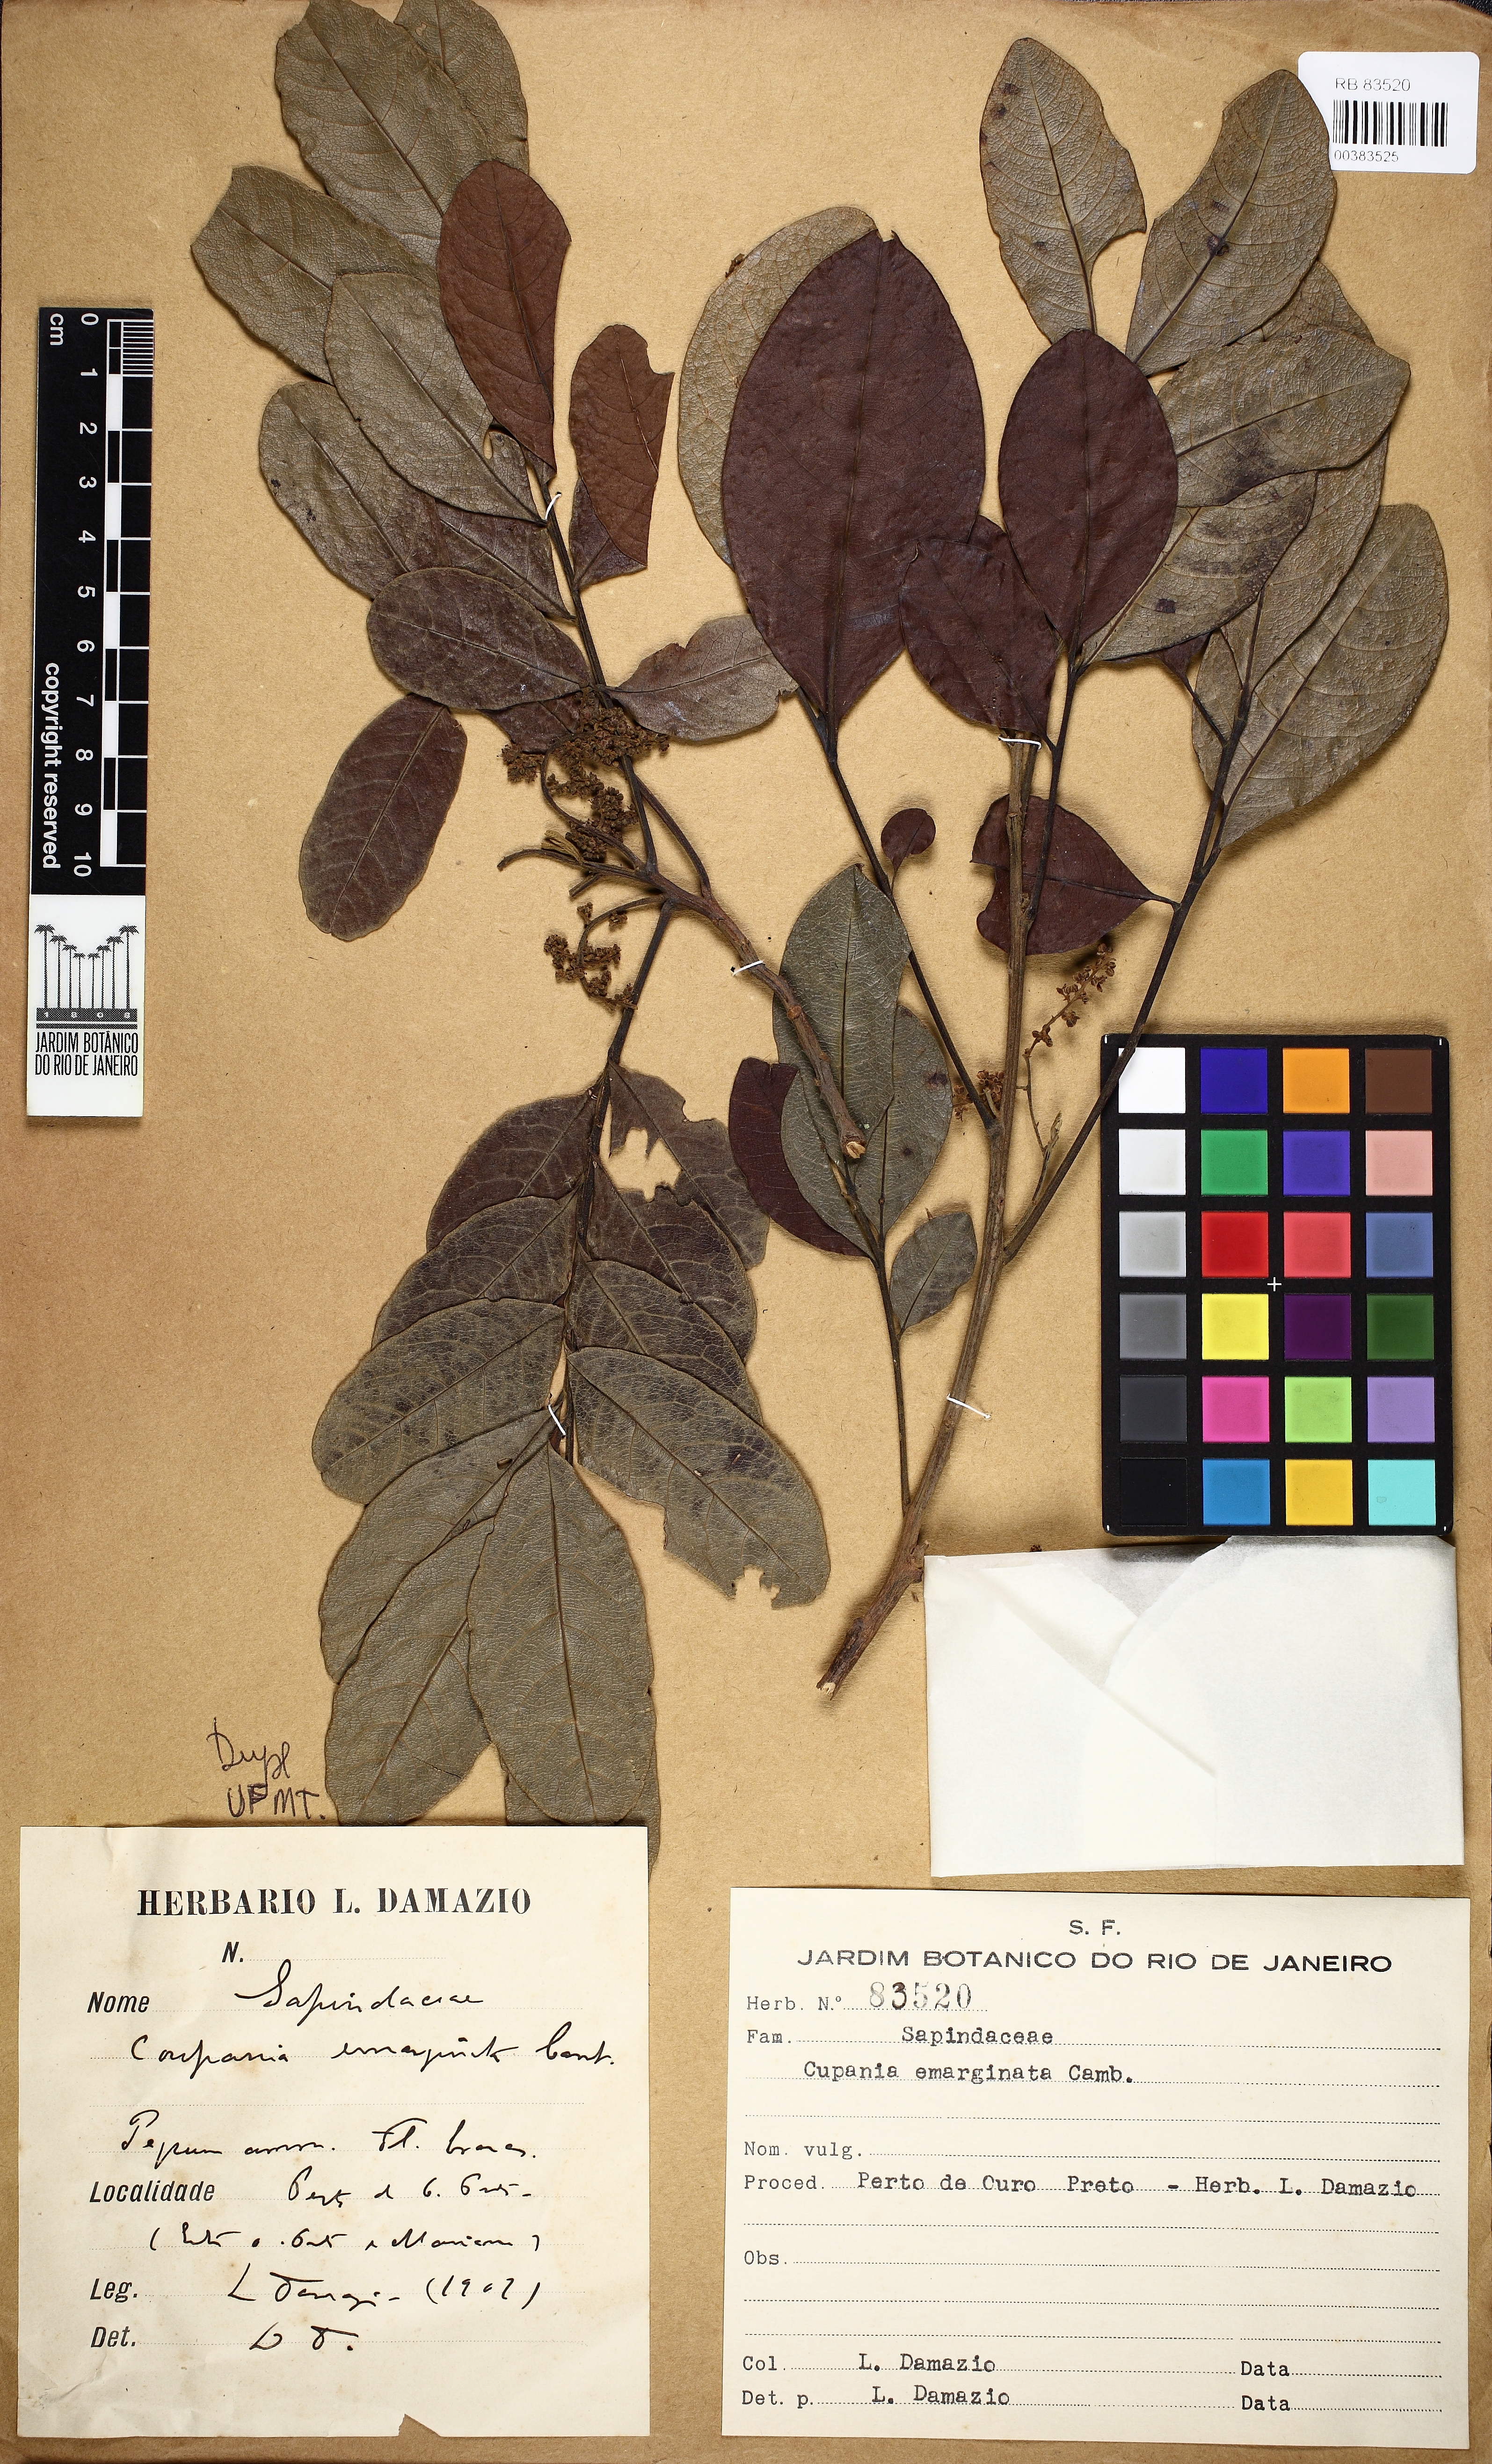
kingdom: Plantae
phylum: Tracheophyta
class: Magnoliopsida
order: Sapindales
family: Sapindaceae
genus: Cupania
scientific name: Cupania emarginata
